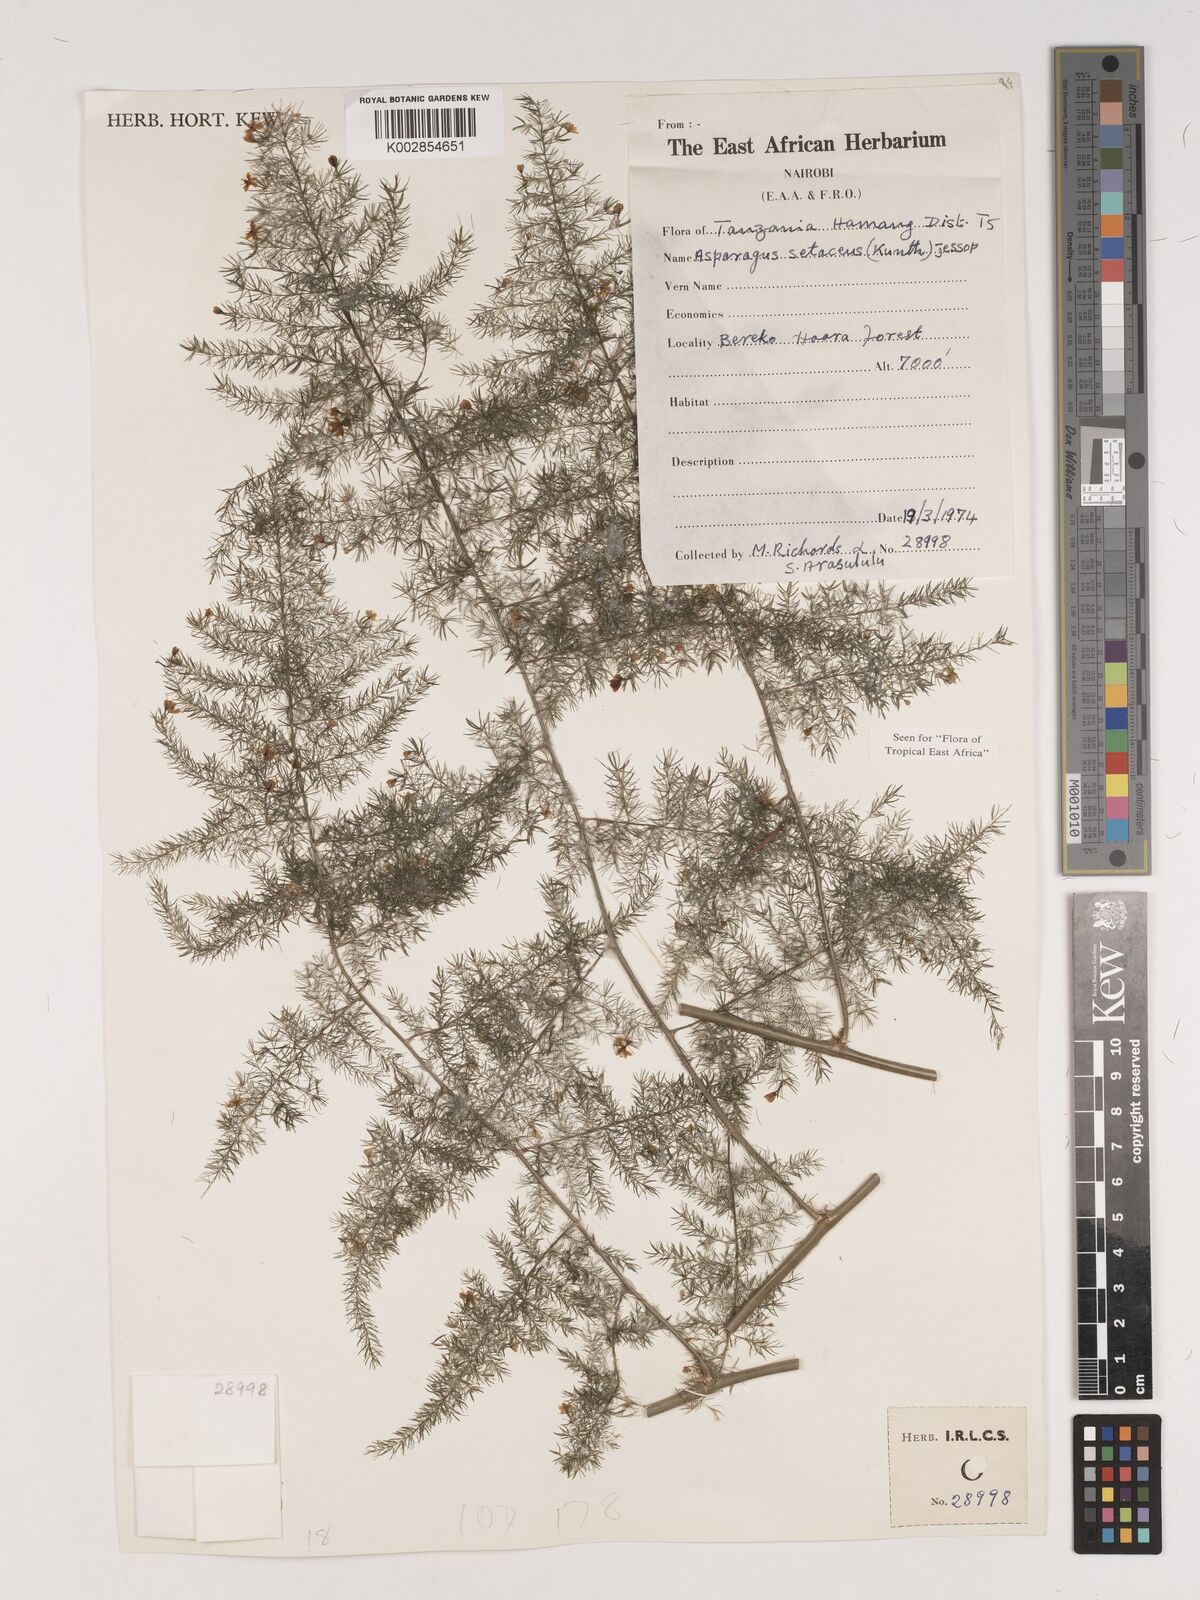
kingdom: Plantae
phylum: Tracheophyta
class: Liliopsida
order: Asparagales
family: Asparagaceae
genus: Asparagus
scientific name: Asparagus setaceus
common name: Common asparagus fern
